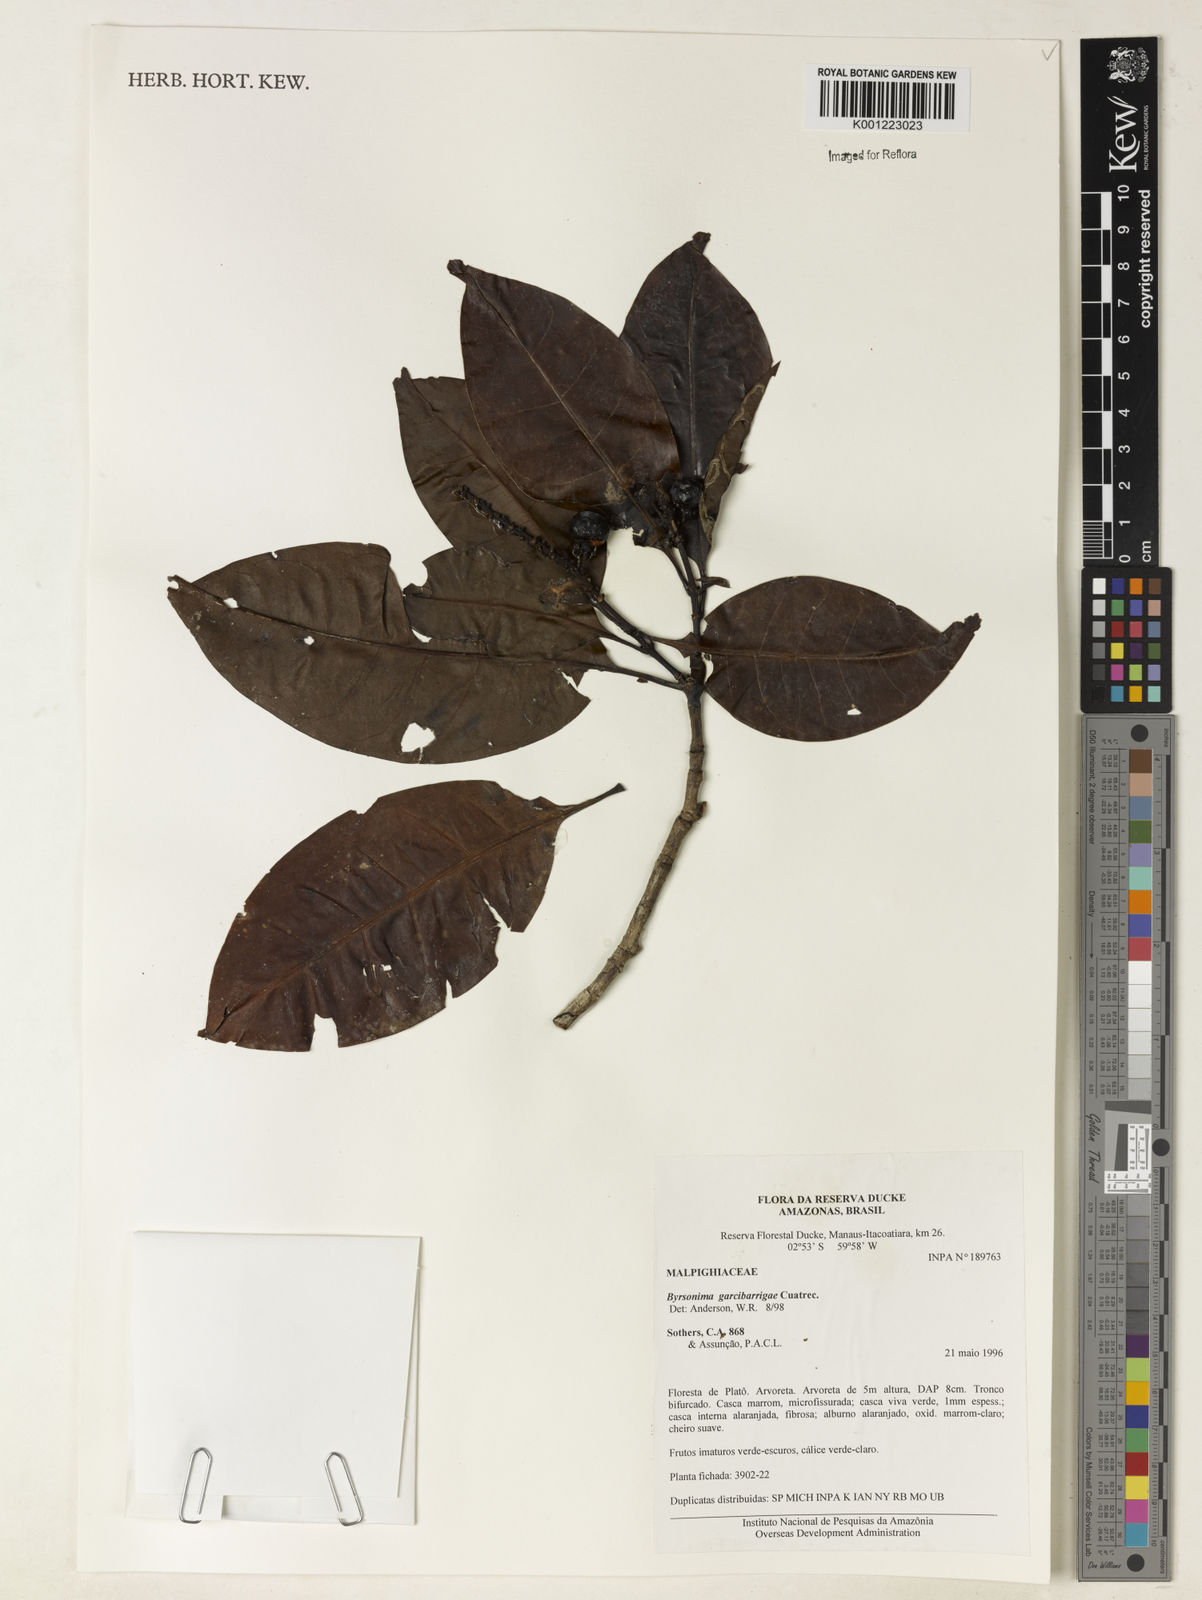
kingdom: Plantae
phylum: Tracheophyta
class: Magnoliopsida
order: Malpighiales
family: Malpighiaceae
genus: Byrsonima
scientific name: Byrsonima garcibarrigae
